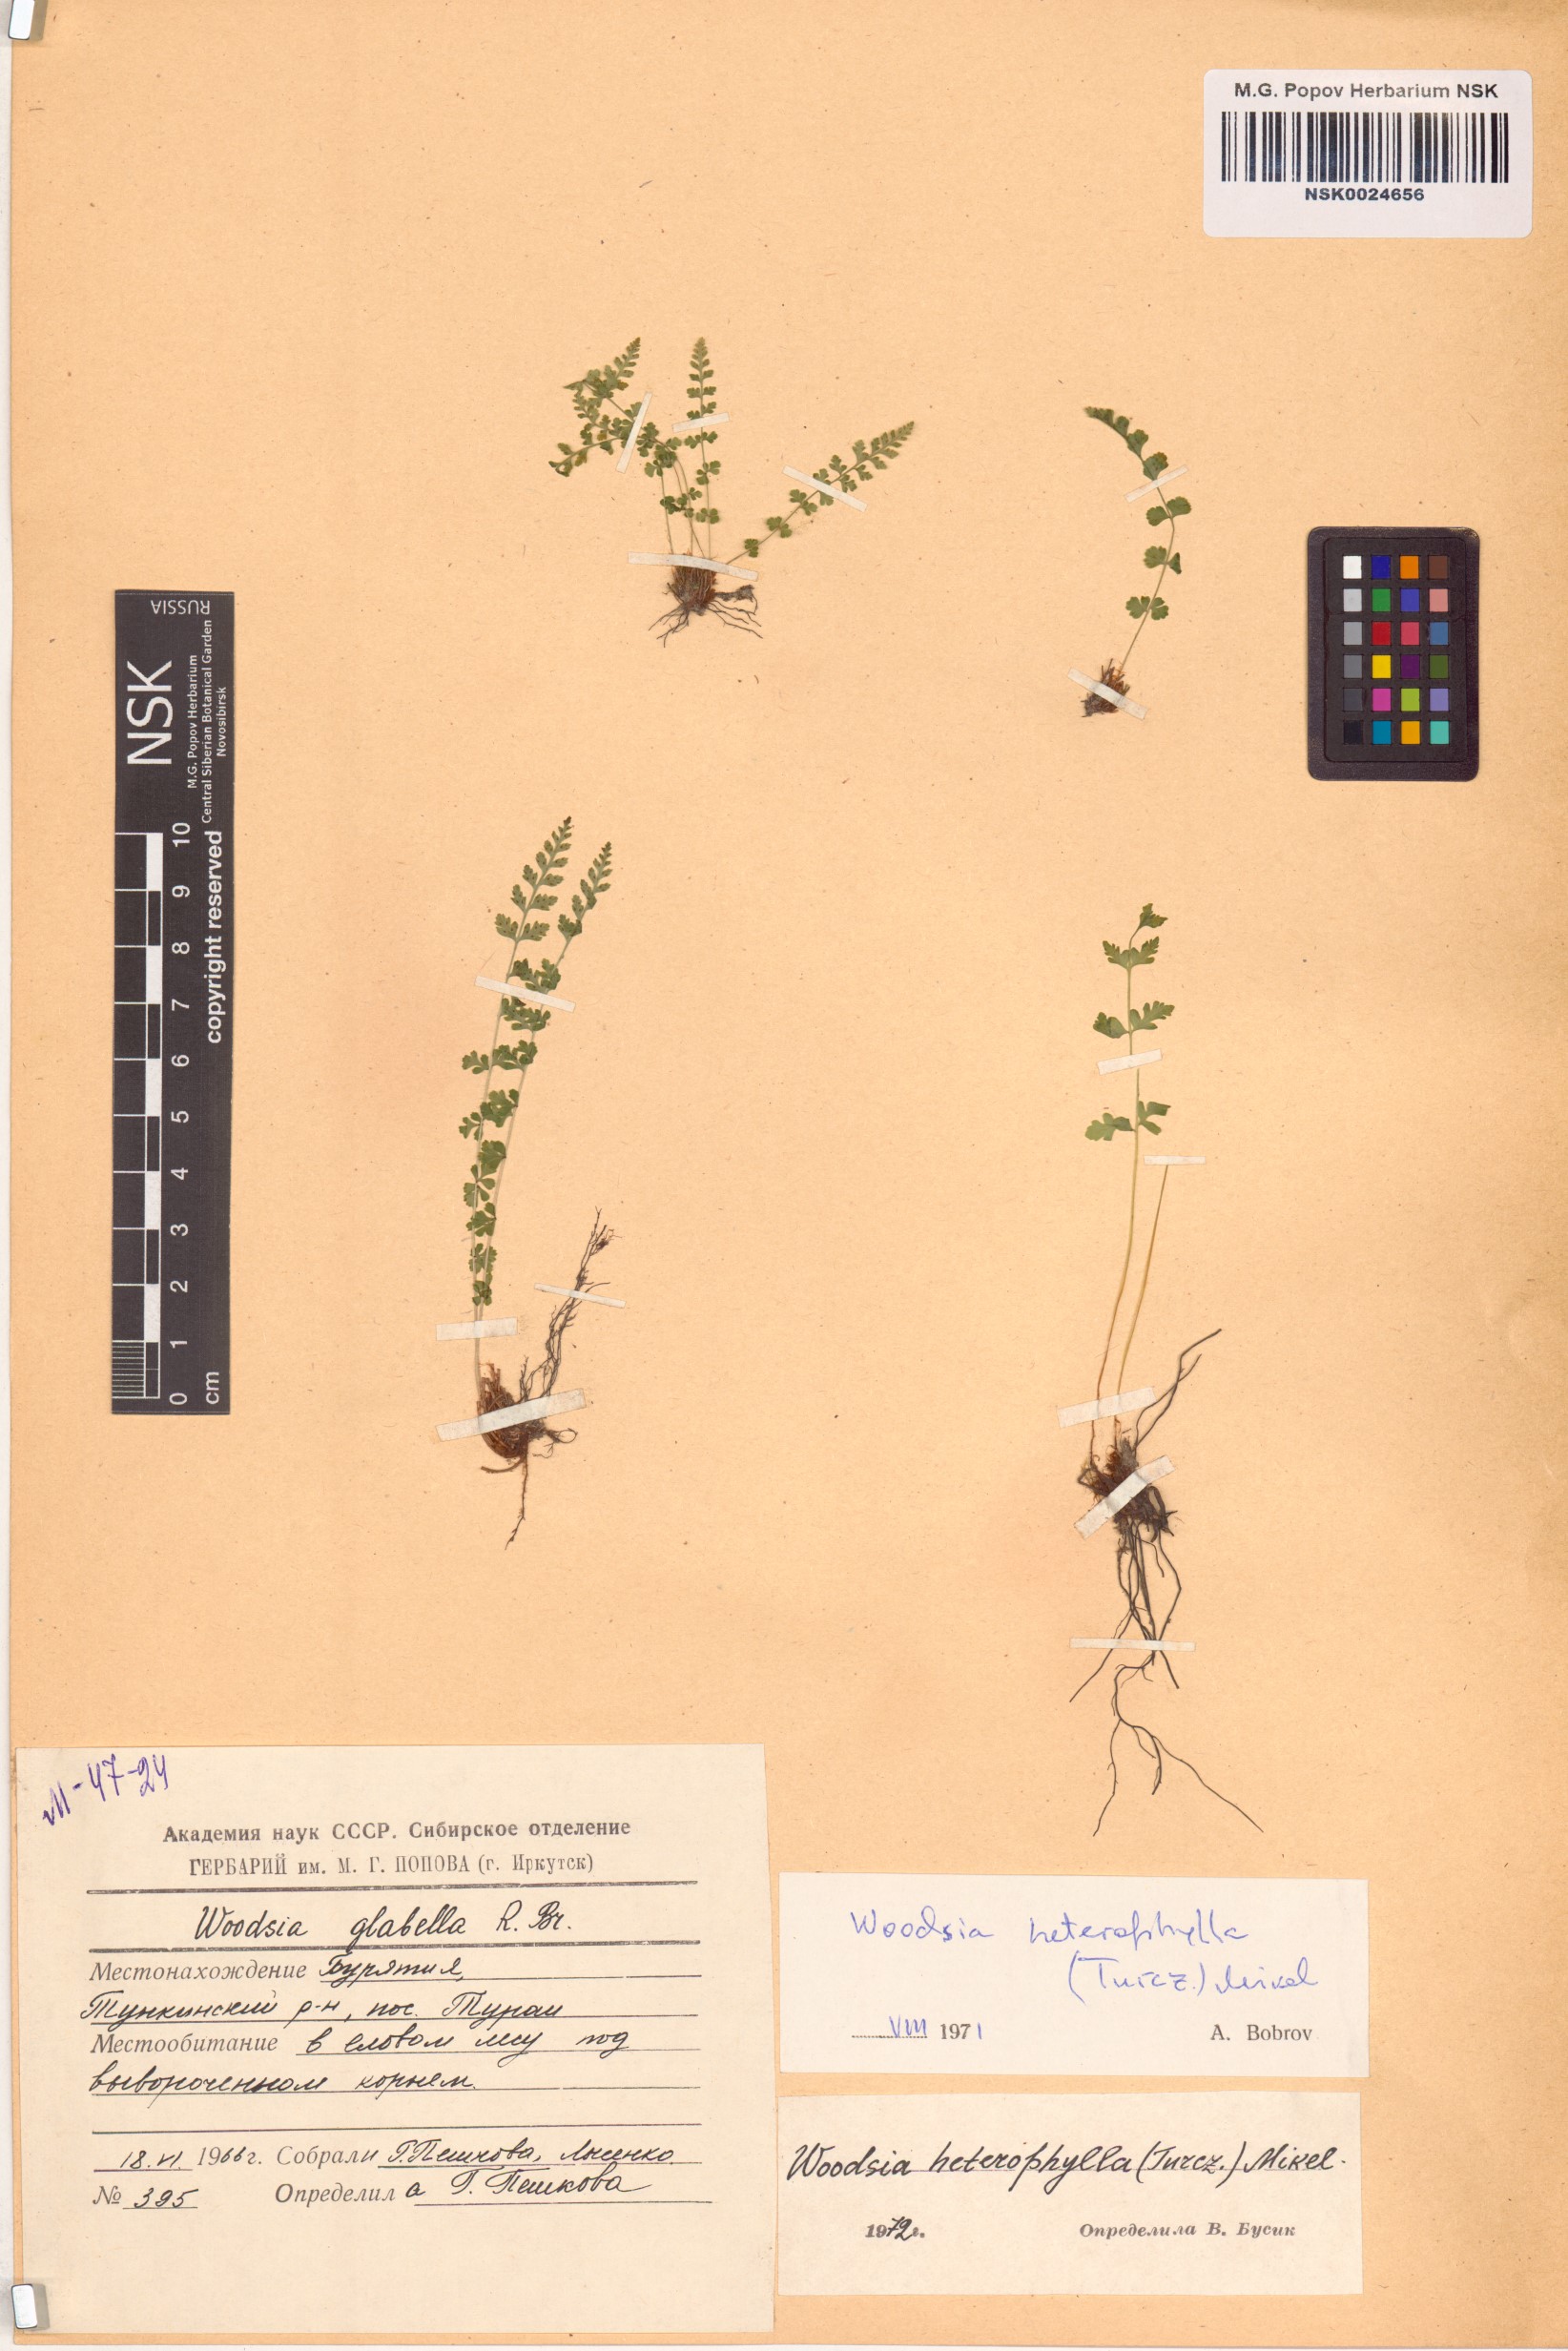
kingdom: Plantae
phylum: Tracheophyta
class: Polypodiopsida
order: Polypodiales
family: Woodsiaceae
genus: Woodsia
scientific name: Woodsia pulchella
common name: Graceful woodsia
